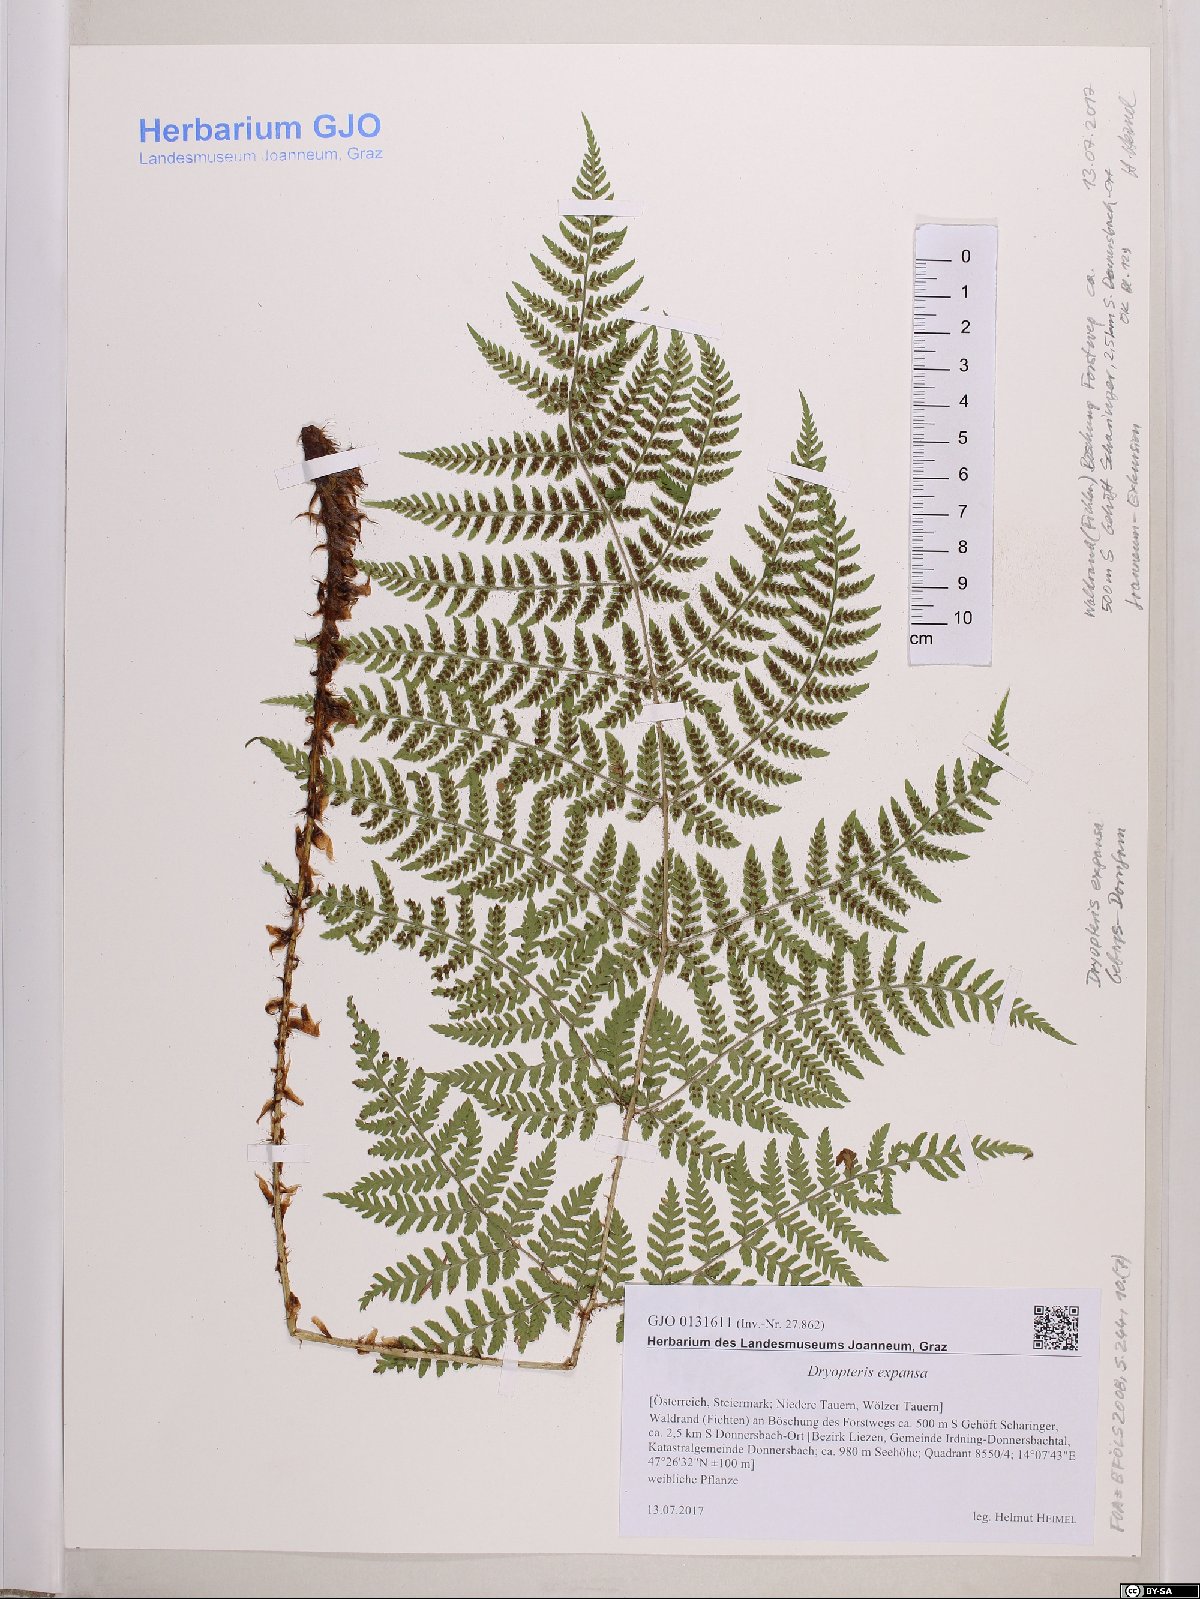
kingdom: Plantae
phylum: Tracheophyta
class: Polypodiopsida
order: Polypodiales
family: Dryopteridaceae
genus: Dryopteris
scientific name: Dryopteris expansa
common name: Northern buckler fern
